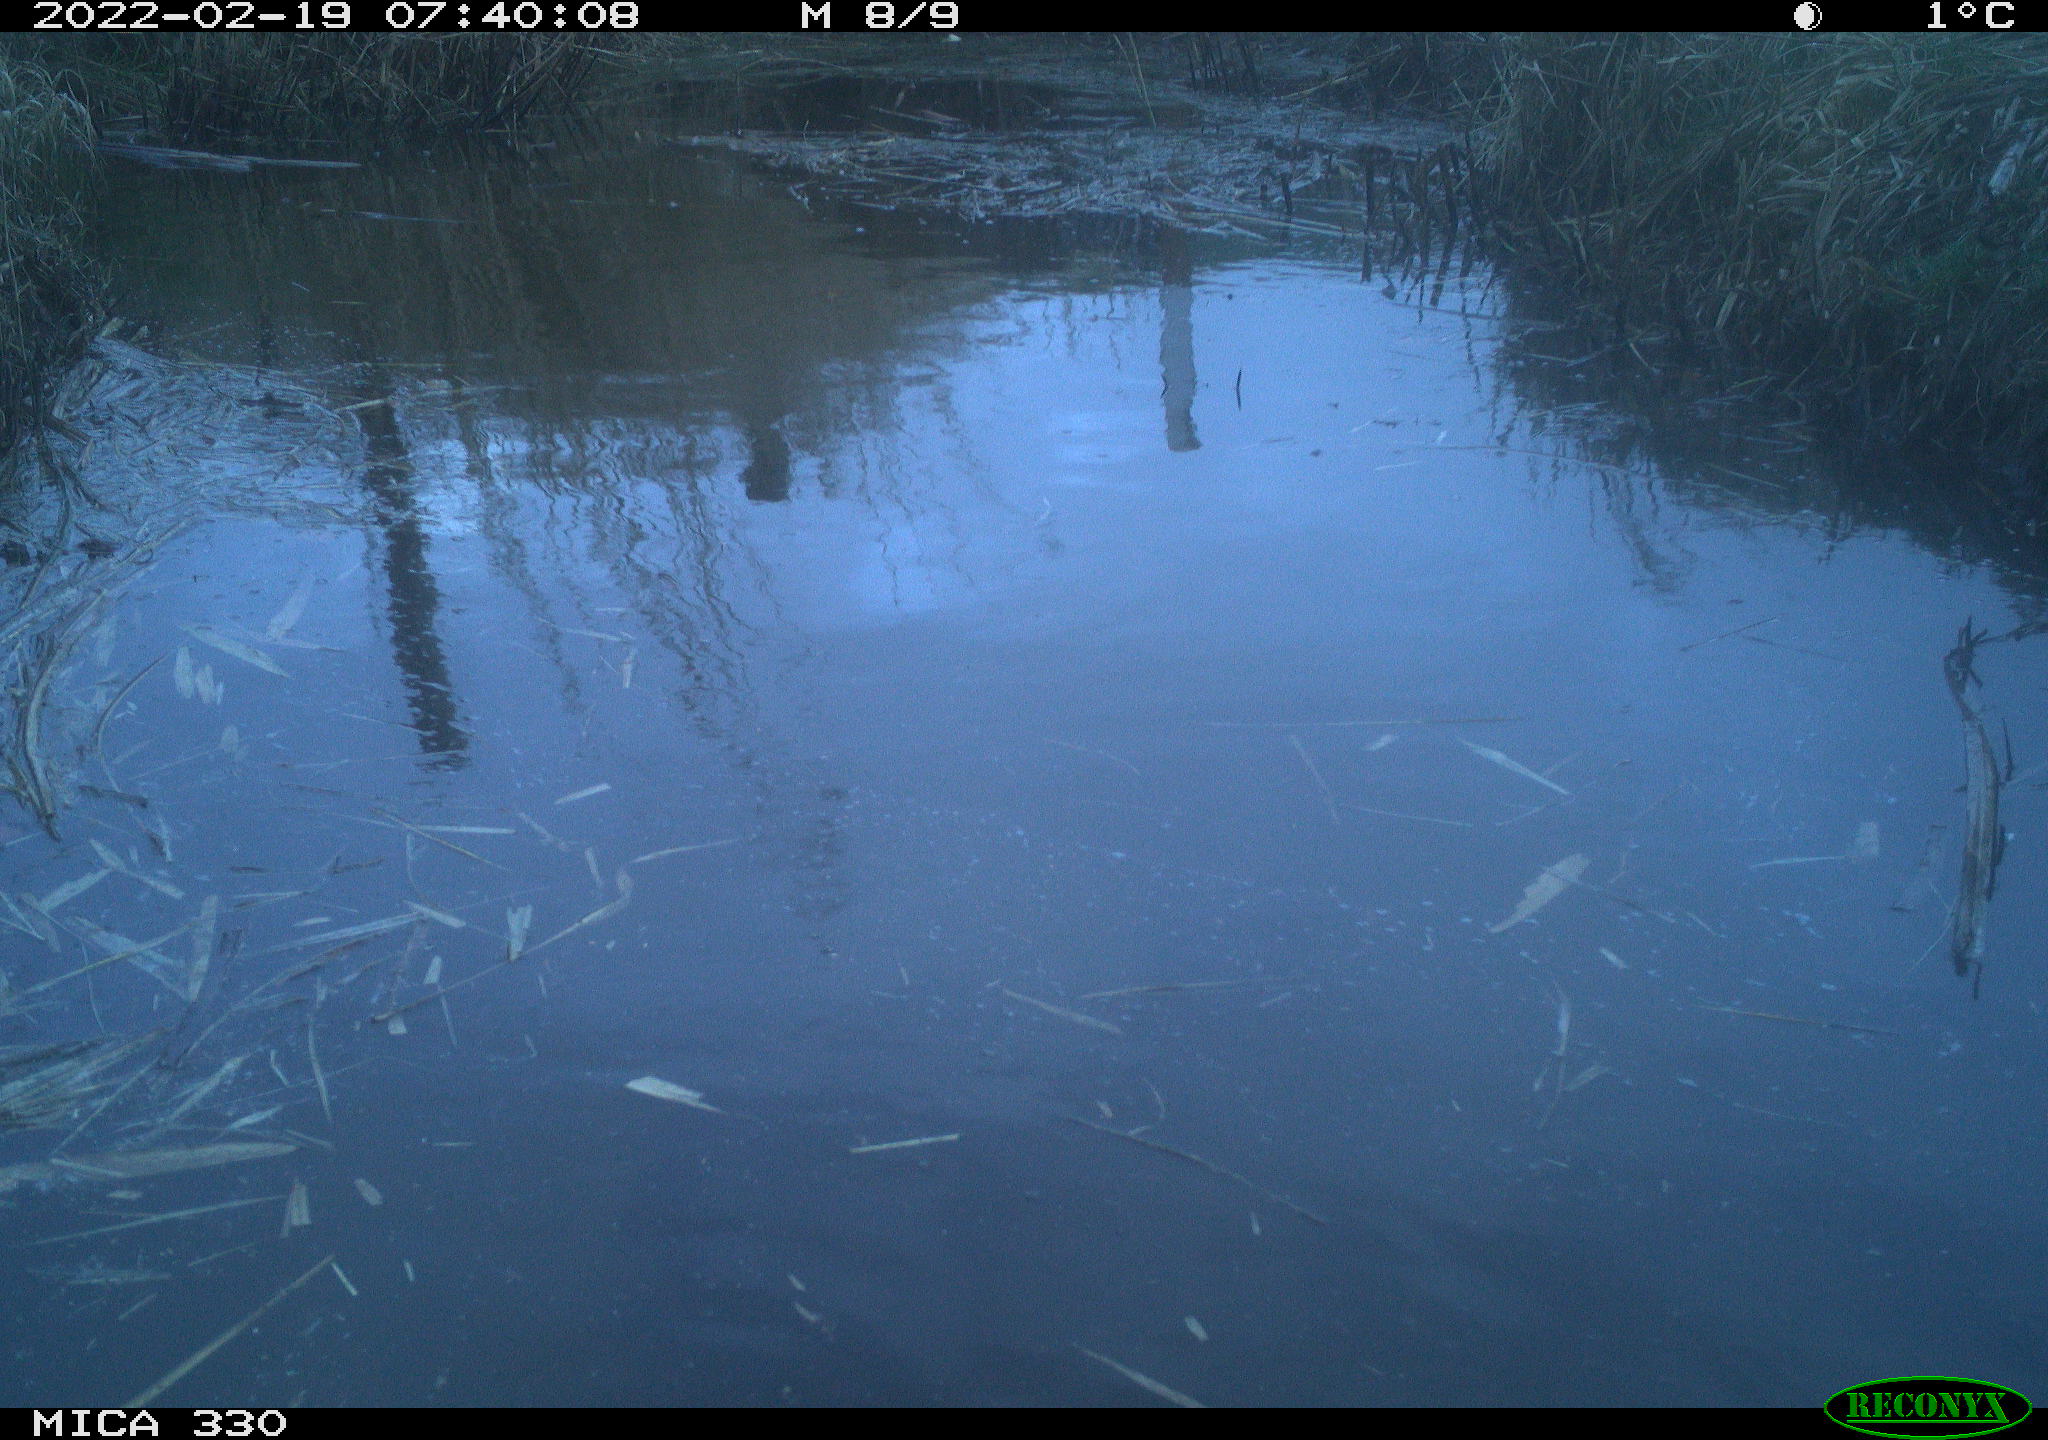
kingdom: Animalia
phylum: Chordata
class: Aves
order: Gruiformes
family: Rallidae
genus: Gallinula
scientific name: Gallinula chloropus
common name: Common moorhen
